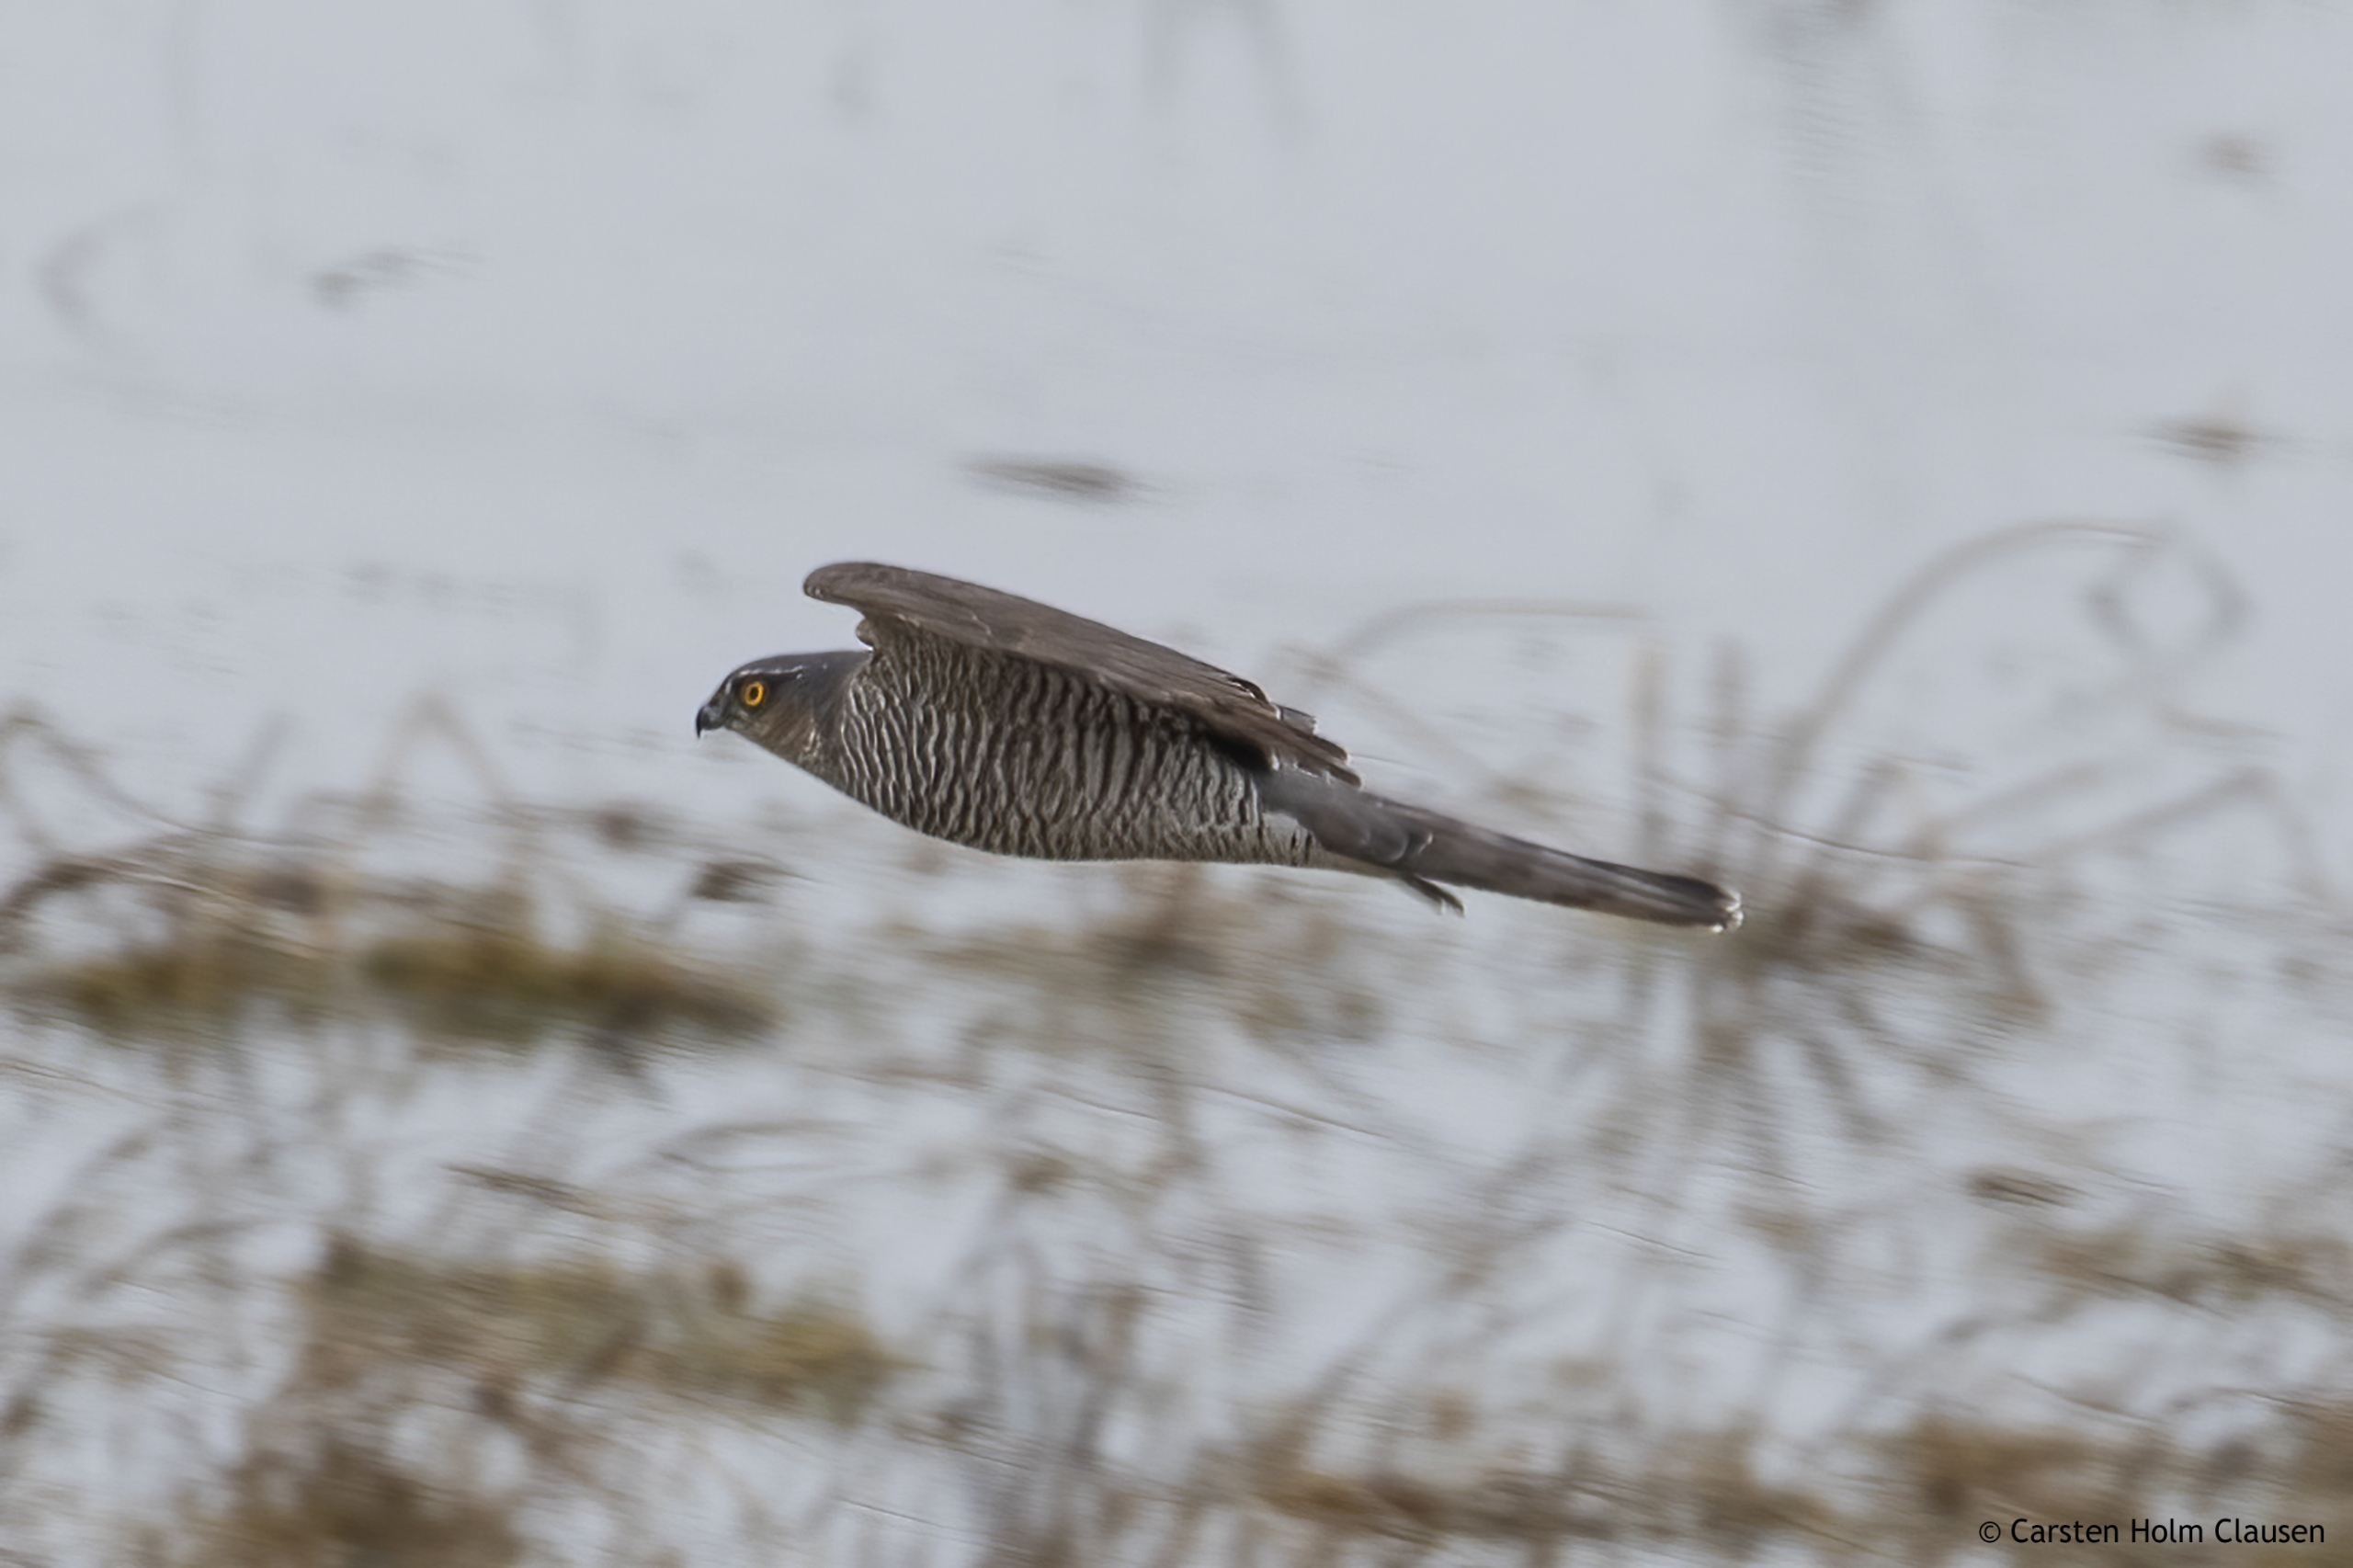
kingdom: Animalia
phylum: Chordata
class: Aves
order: Accipitriformes
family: Accipitridae
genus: Accipiter
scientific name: Accipiter nisus
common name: Spurvehøg
